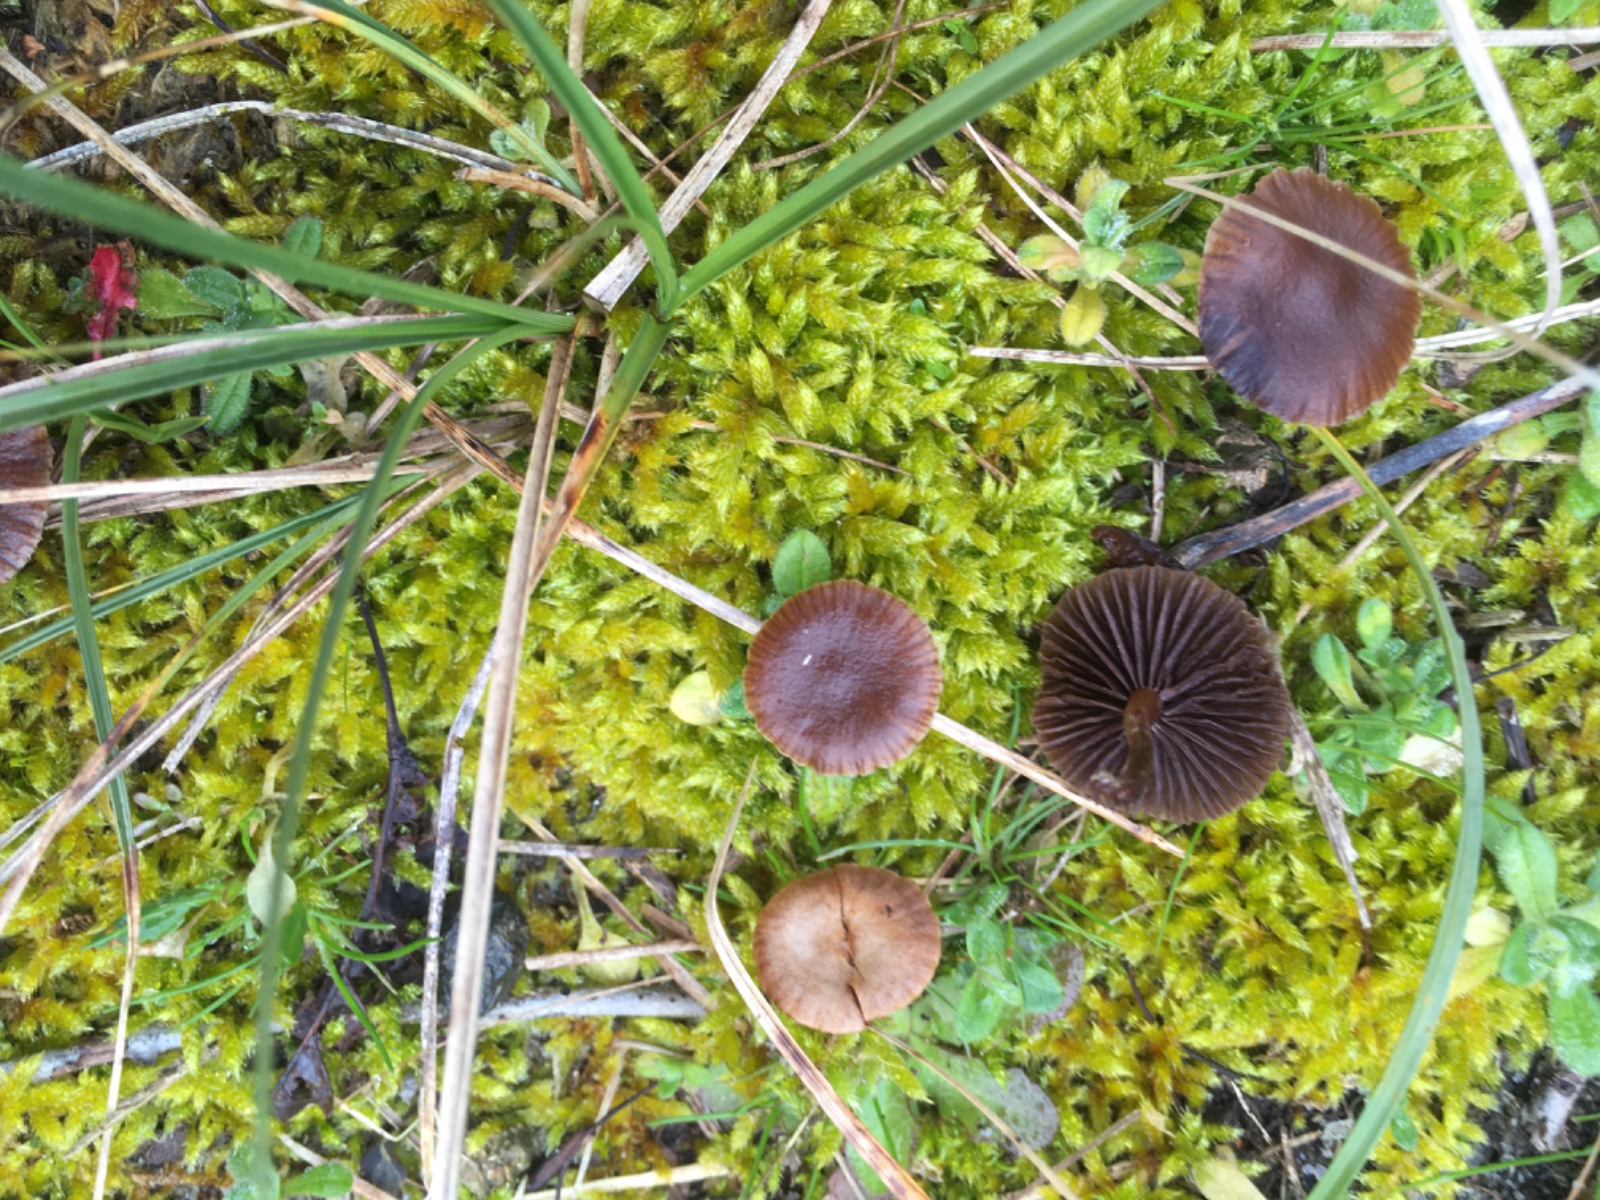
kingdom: Fungi
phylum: Basidiomycota
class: Agaricomycetes
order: Agaricales
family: Strophariaceae
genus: Deconica
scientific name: Deconica montana
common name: rødbrun stråhat
